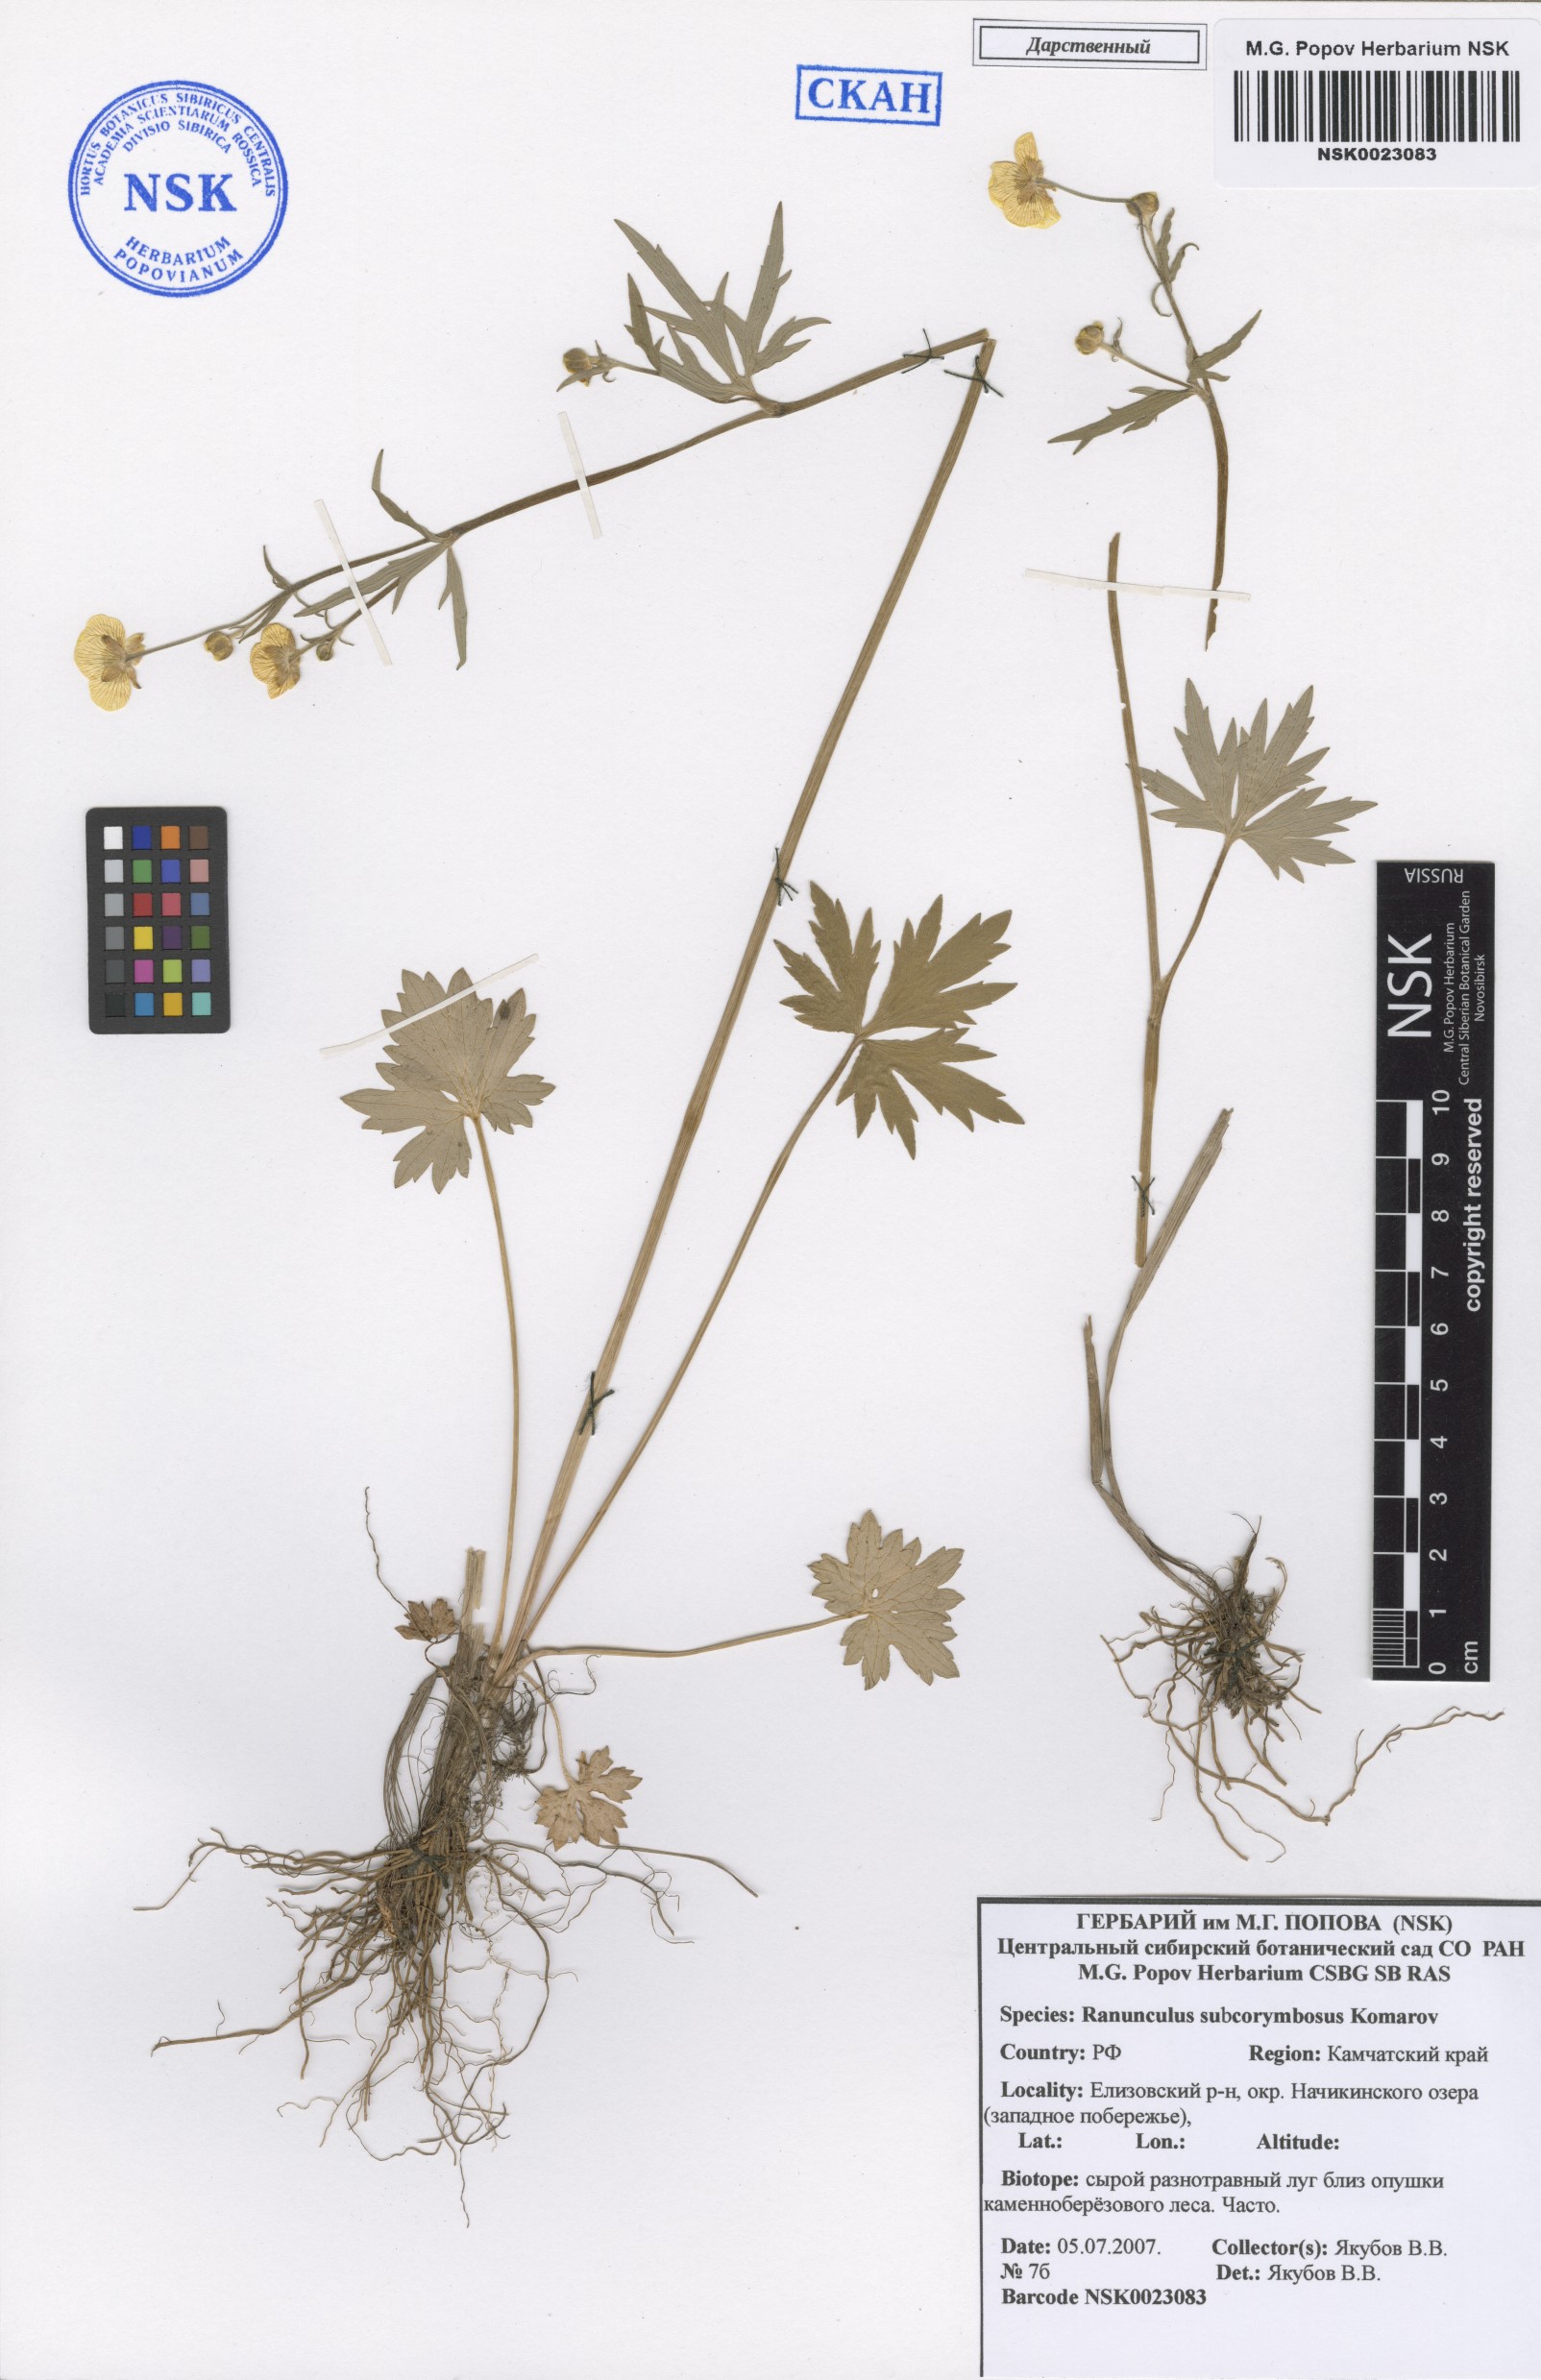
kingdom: Plantae
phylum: Tracheophyta
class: Magnoliopsida
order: Ranunculales
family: Ranunculaceae
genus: Ranunculus
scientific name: Ranunculus subcorymbosus
